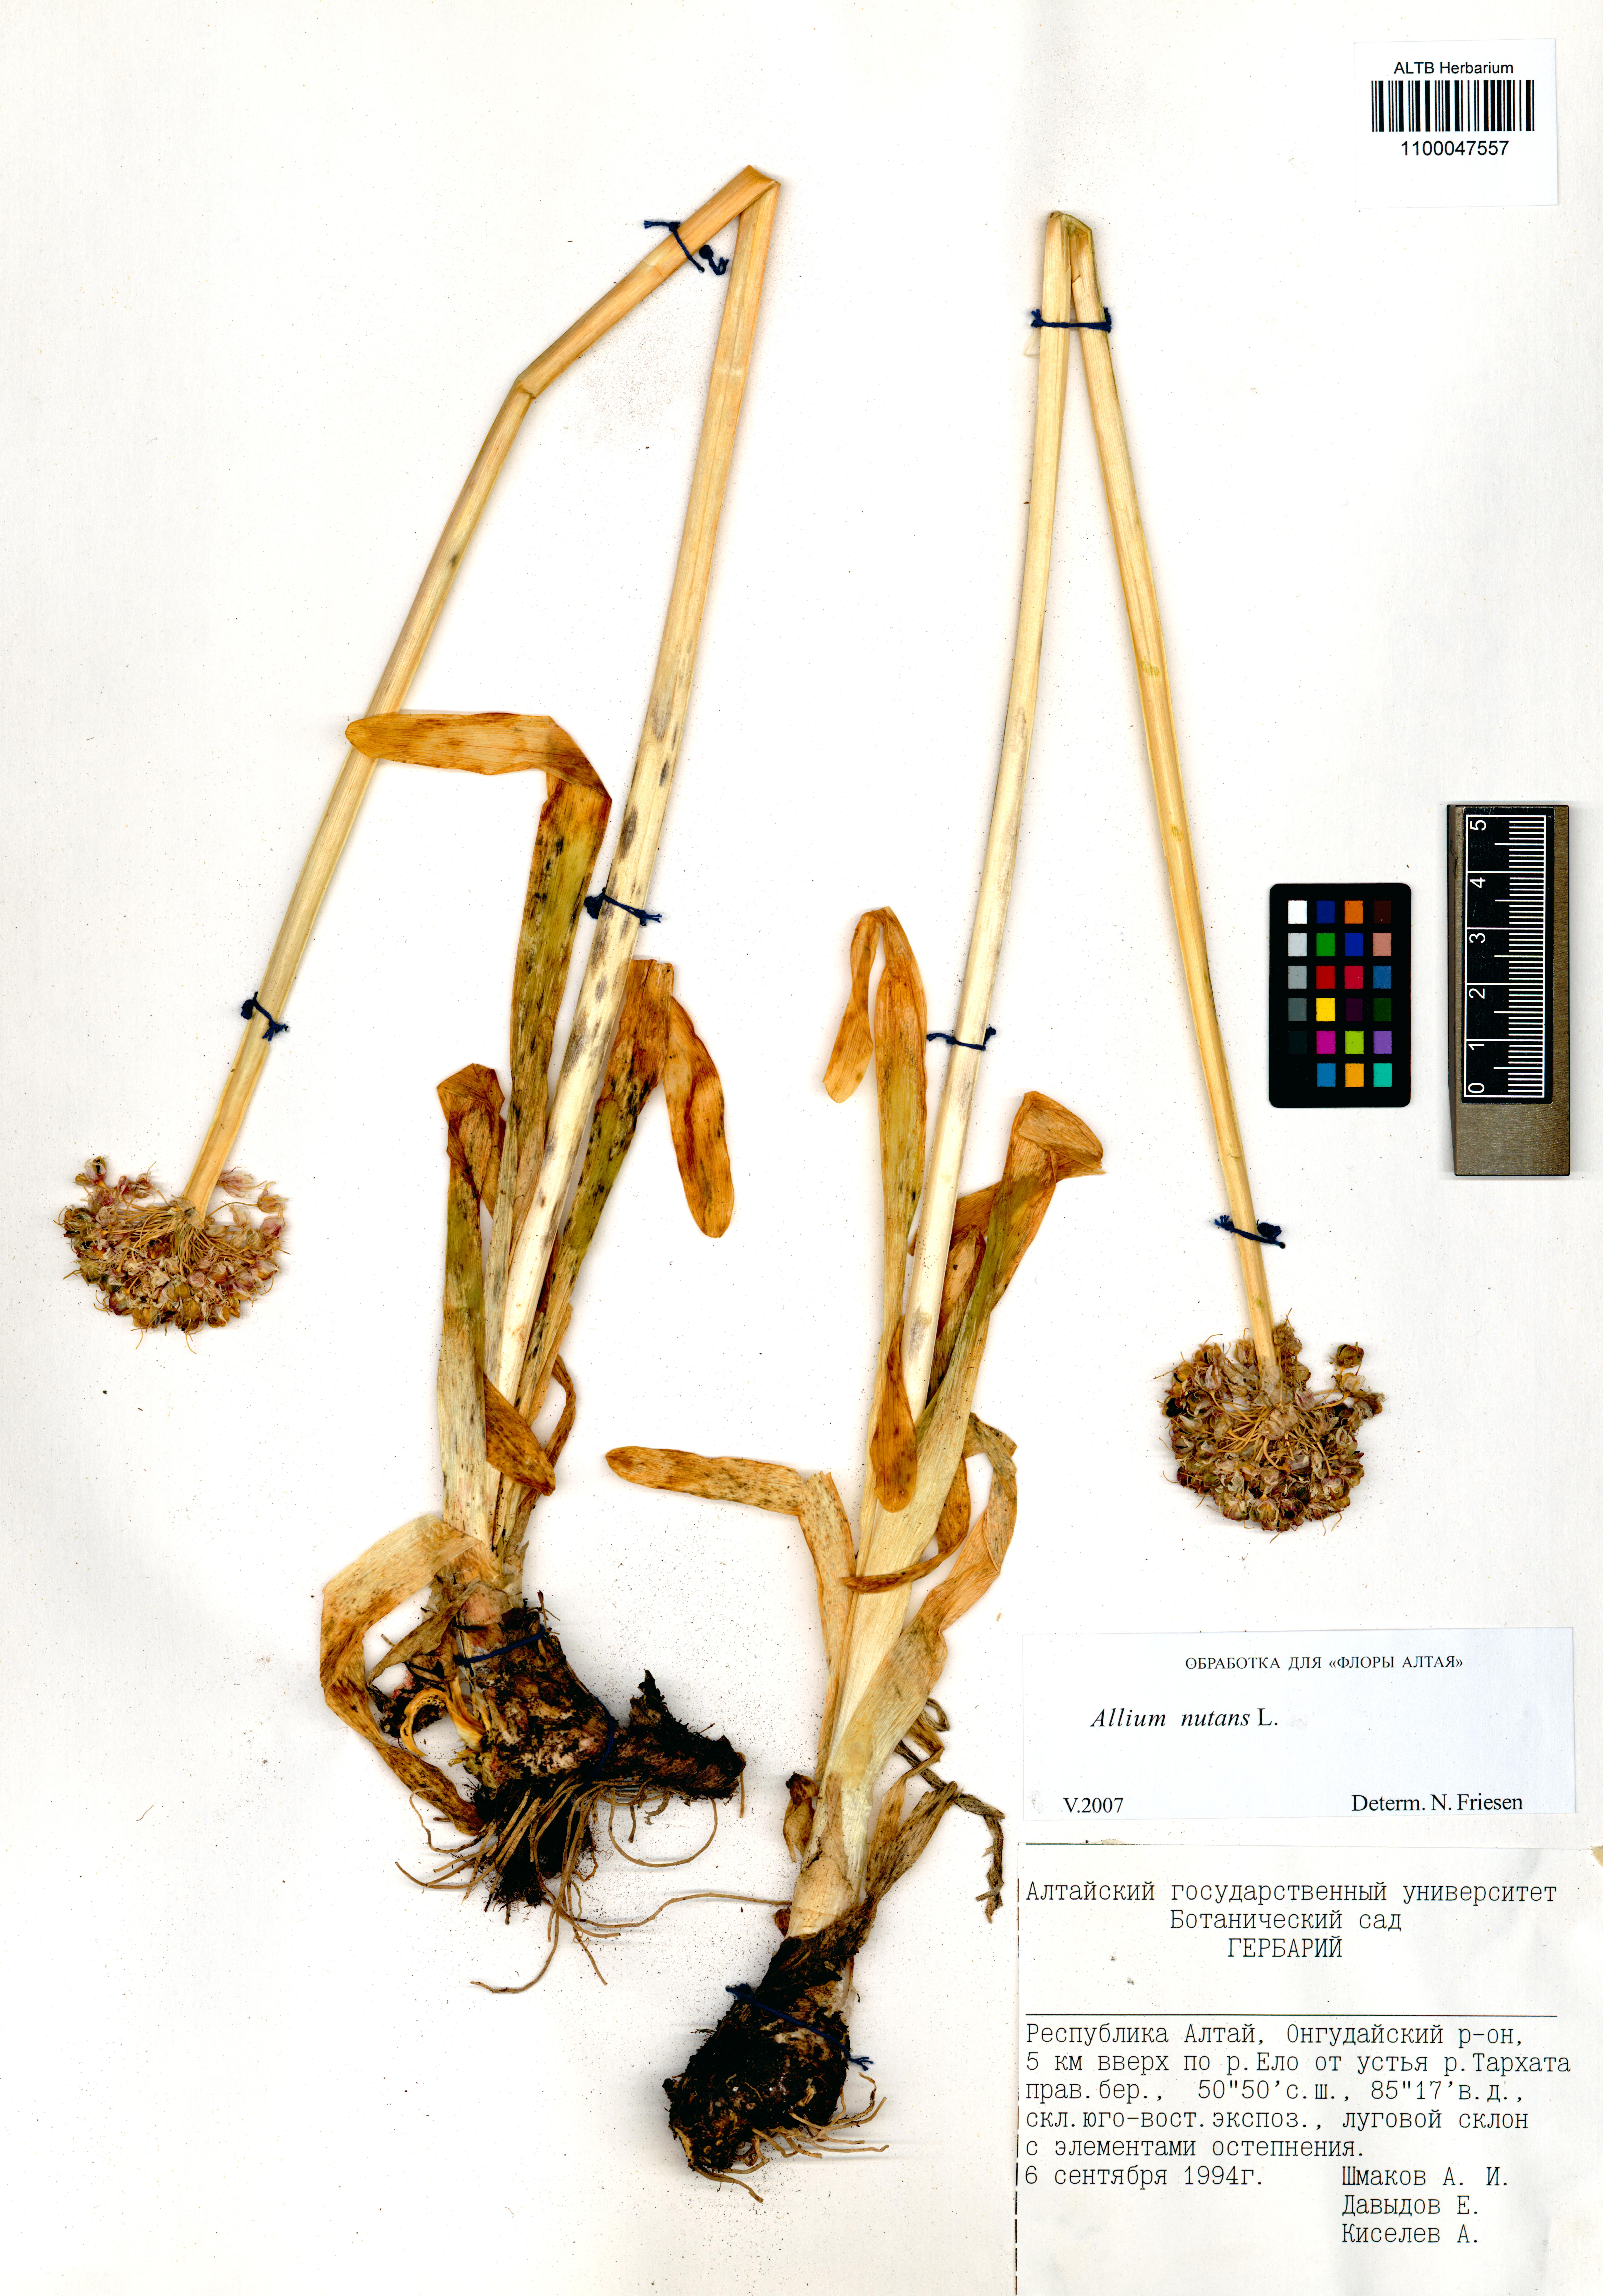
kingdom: Plantae
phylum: Tracheophyta
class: Liliopsida
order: Asparagales
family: Amaryllidaceae
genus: Allium
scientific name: Allium nutans
